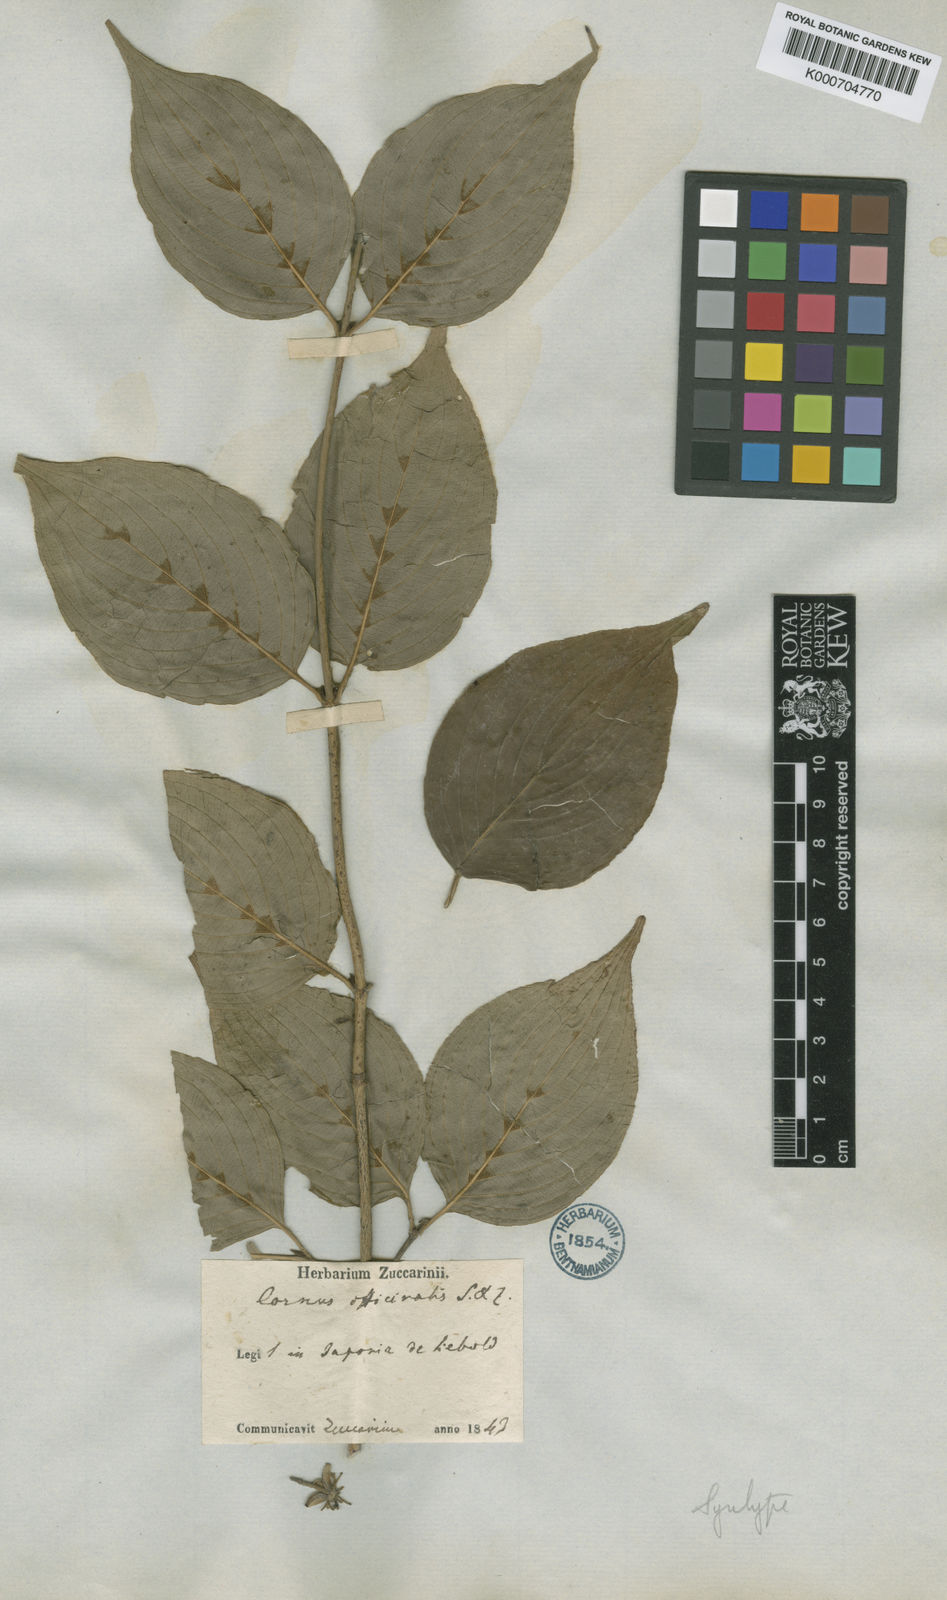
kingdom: Plantae
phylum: Tracheophyta
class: Magnoliopsida
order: Cornales
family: Cornaceae
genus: Cornus
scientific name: Cornus officinalis
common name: Asiatic dogwood
